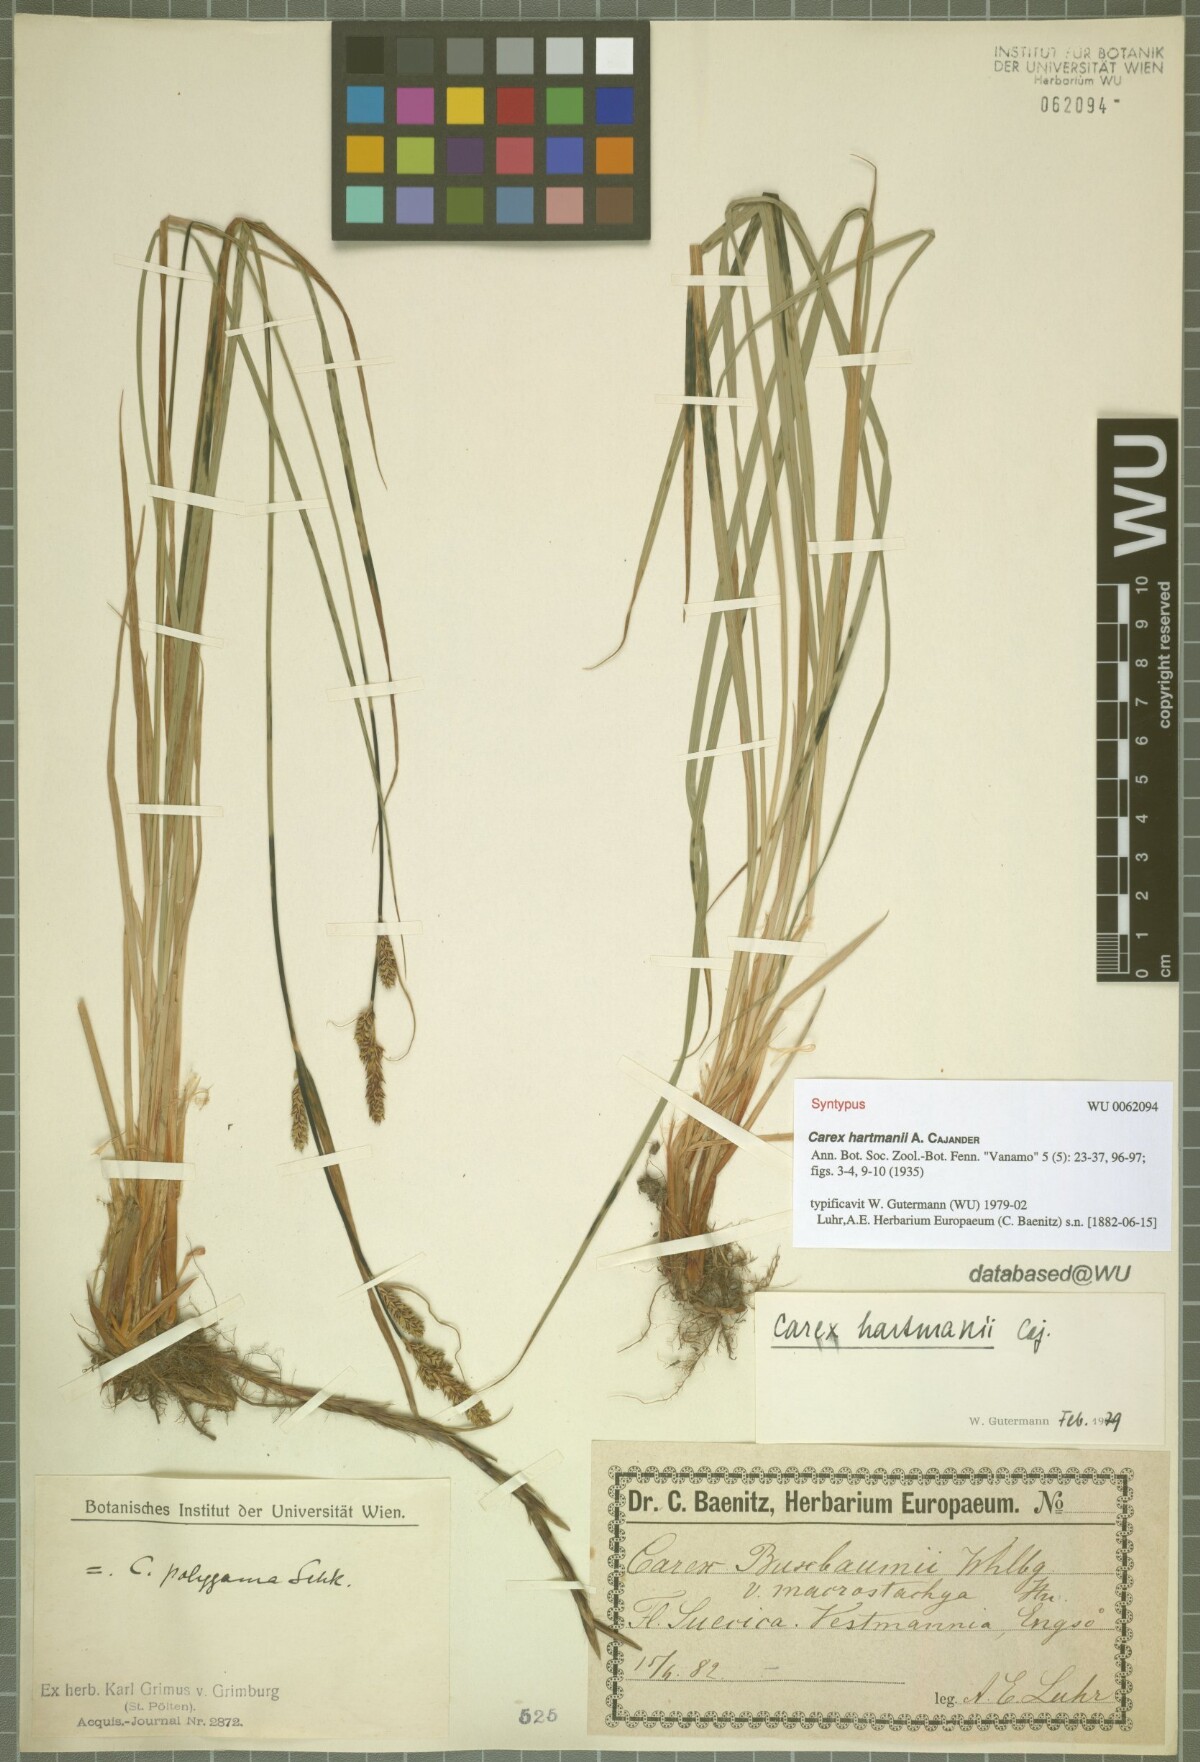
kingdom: Plantae
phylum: Tracheophyta
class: Liliopsida
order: Poales
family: Cyperaceae
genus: Carex
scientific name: Carex hartmaniorum
